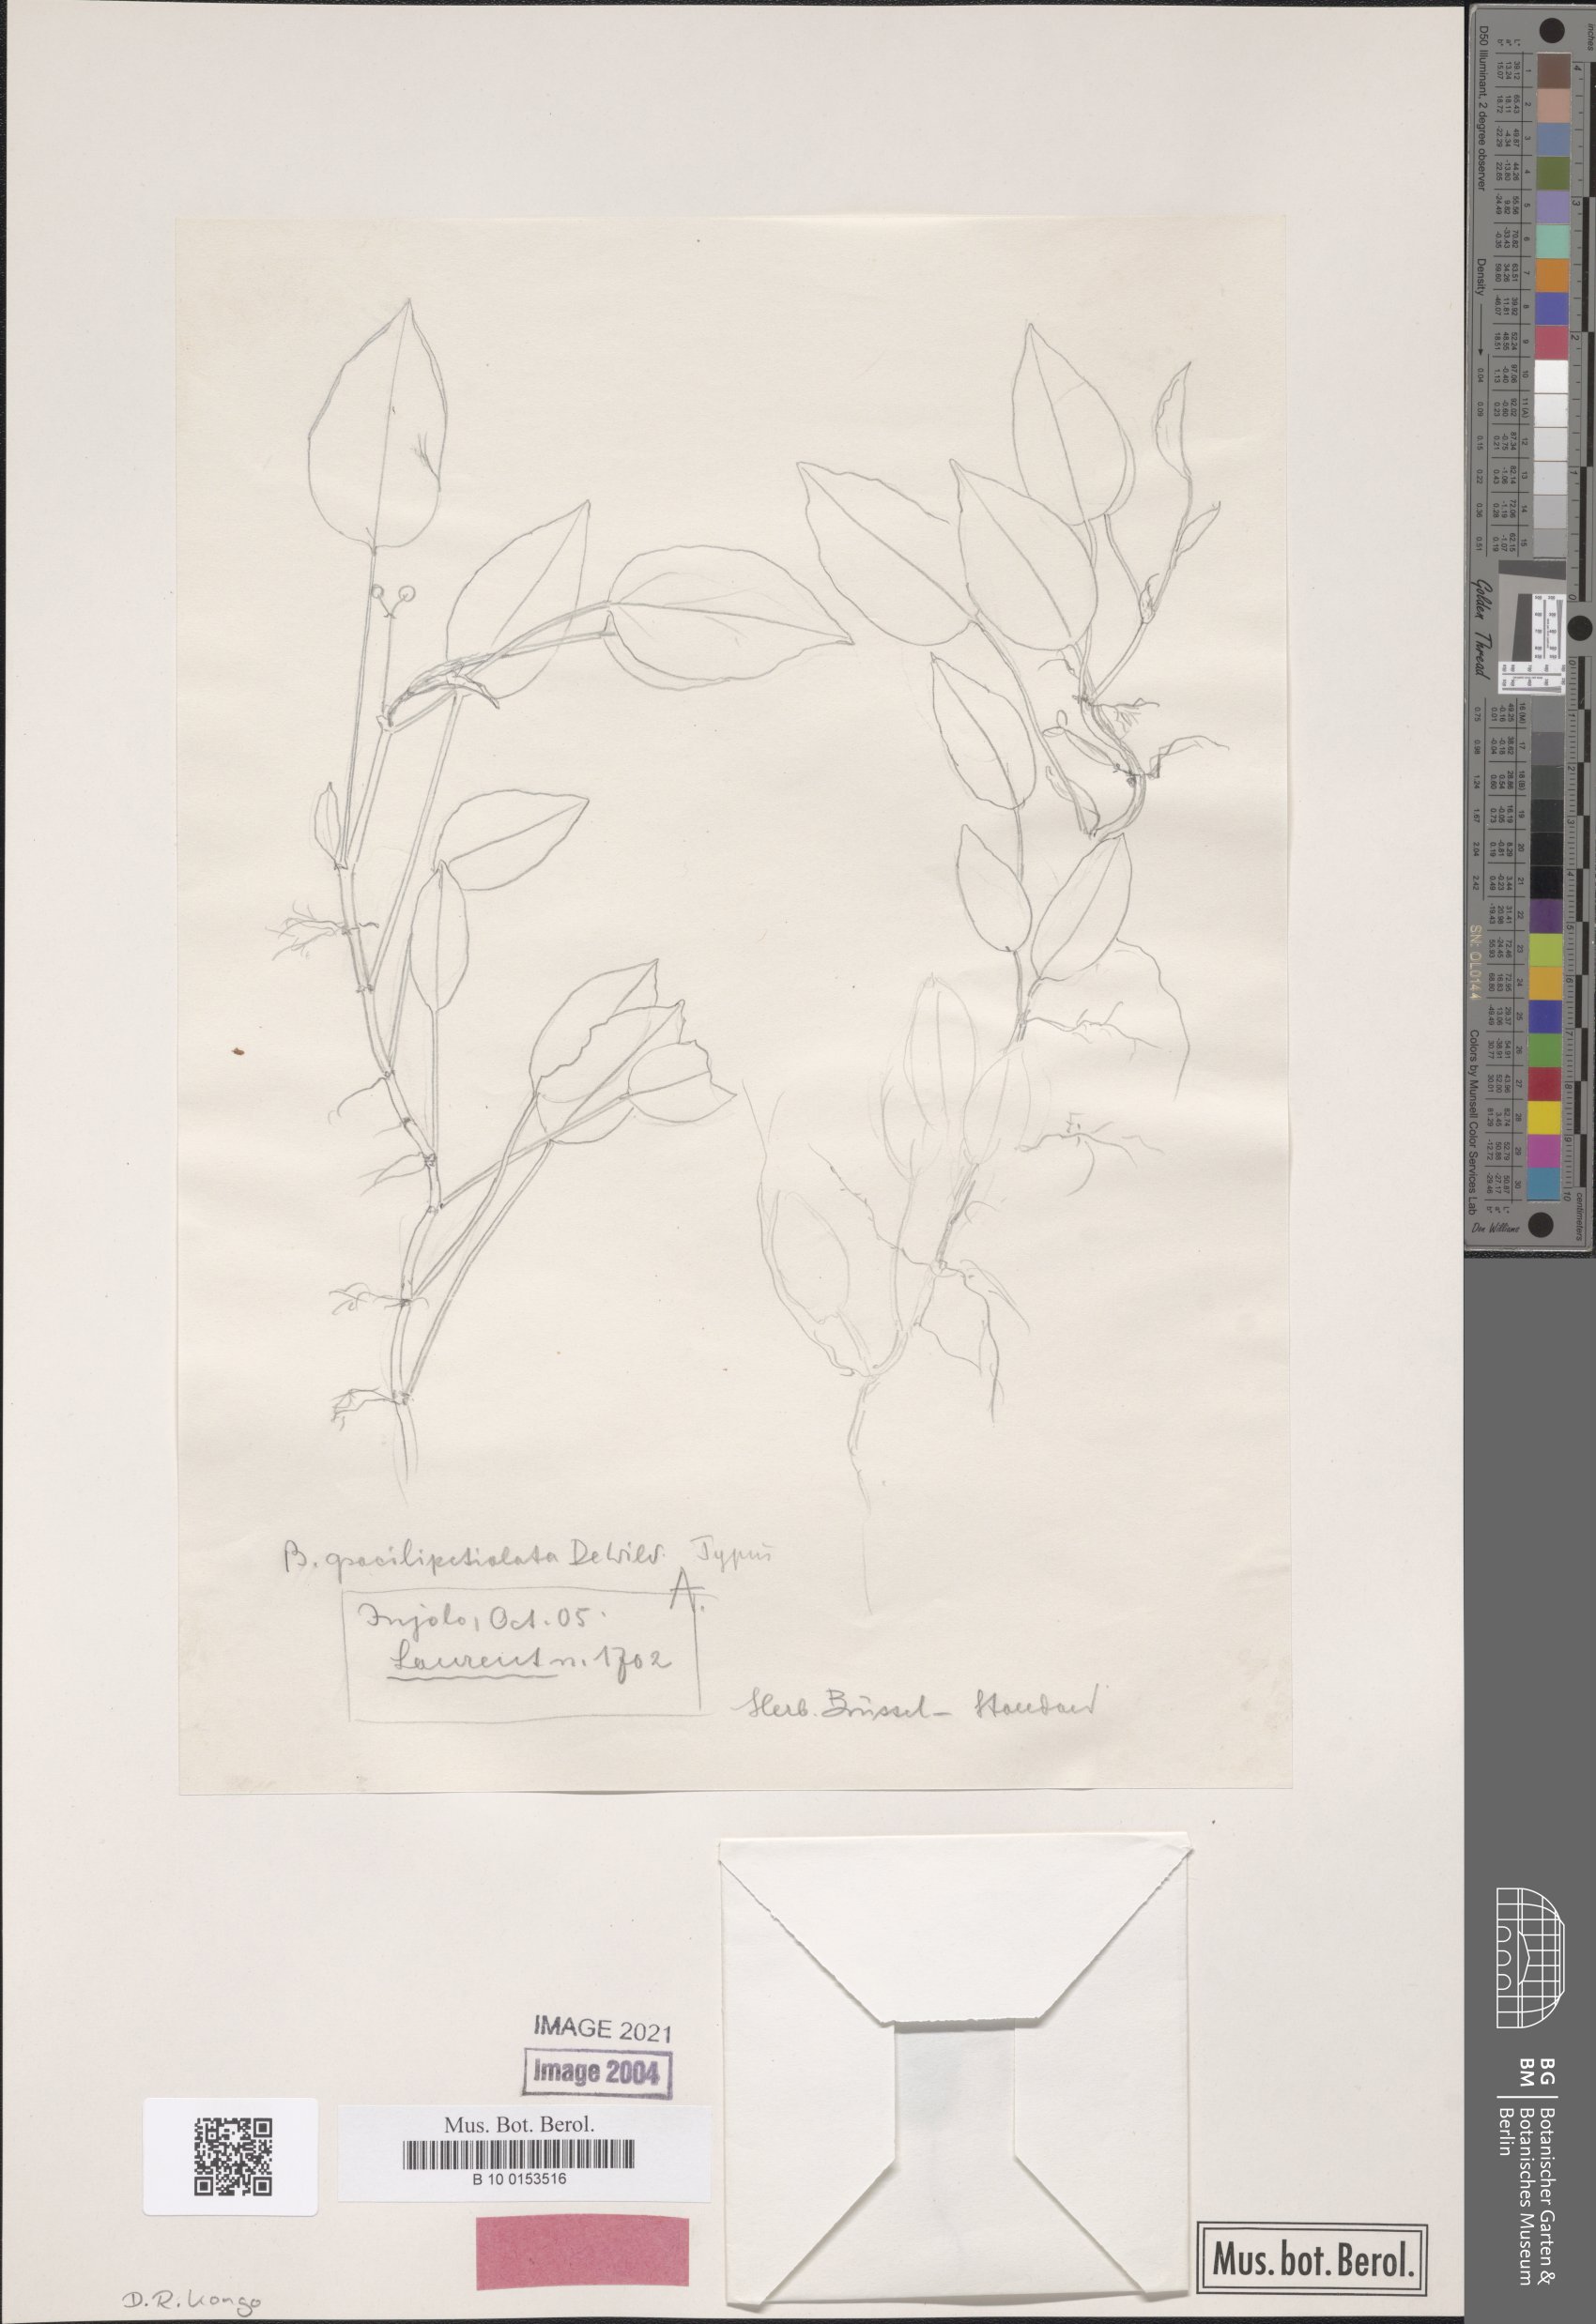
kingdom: Plantae
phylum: Tracheophyta
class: Magnoliopsida
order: Cucurbitales
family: Begoniaceae
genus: Begonia
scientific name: Begonia longipetiolata
